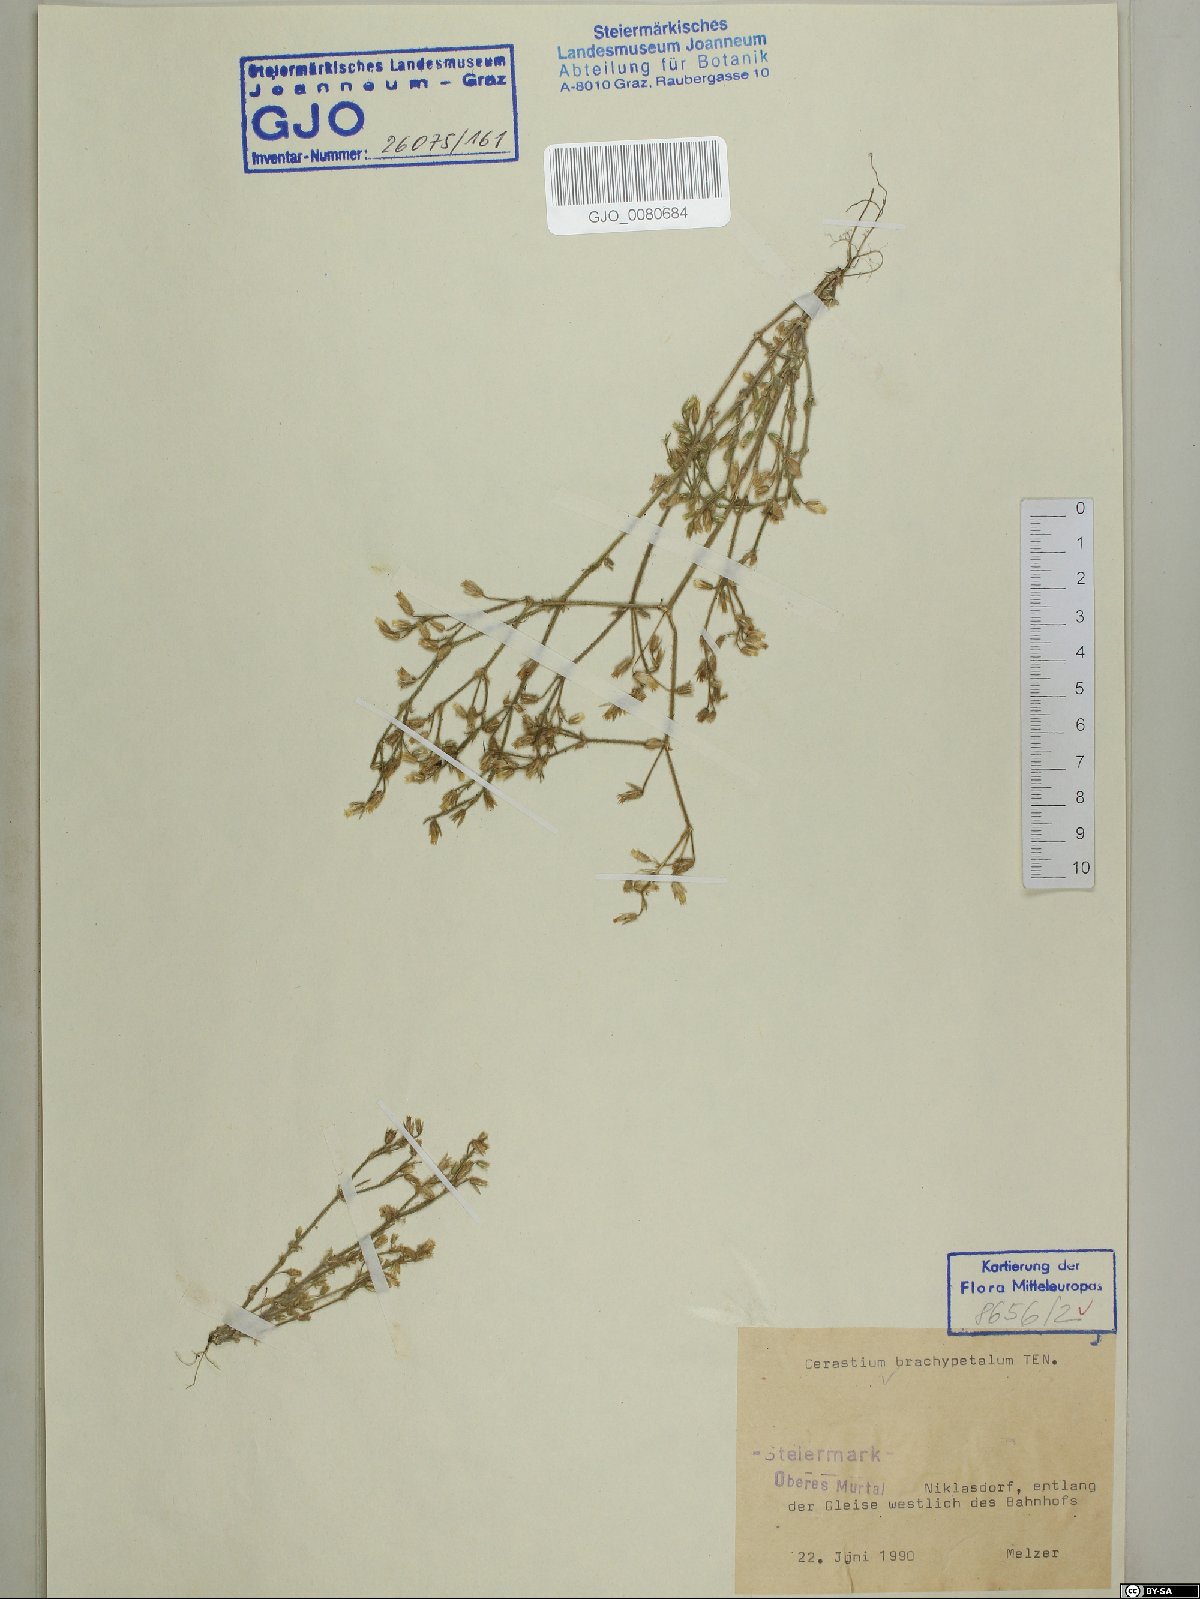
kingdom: Plantae
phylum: Tracheophyta
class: Magnoliopsida
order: Caryophyllales
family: Caryophyllaceae
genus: Cerastium
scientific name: Cerastium brachypetalum
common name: Grey mouse-ear
